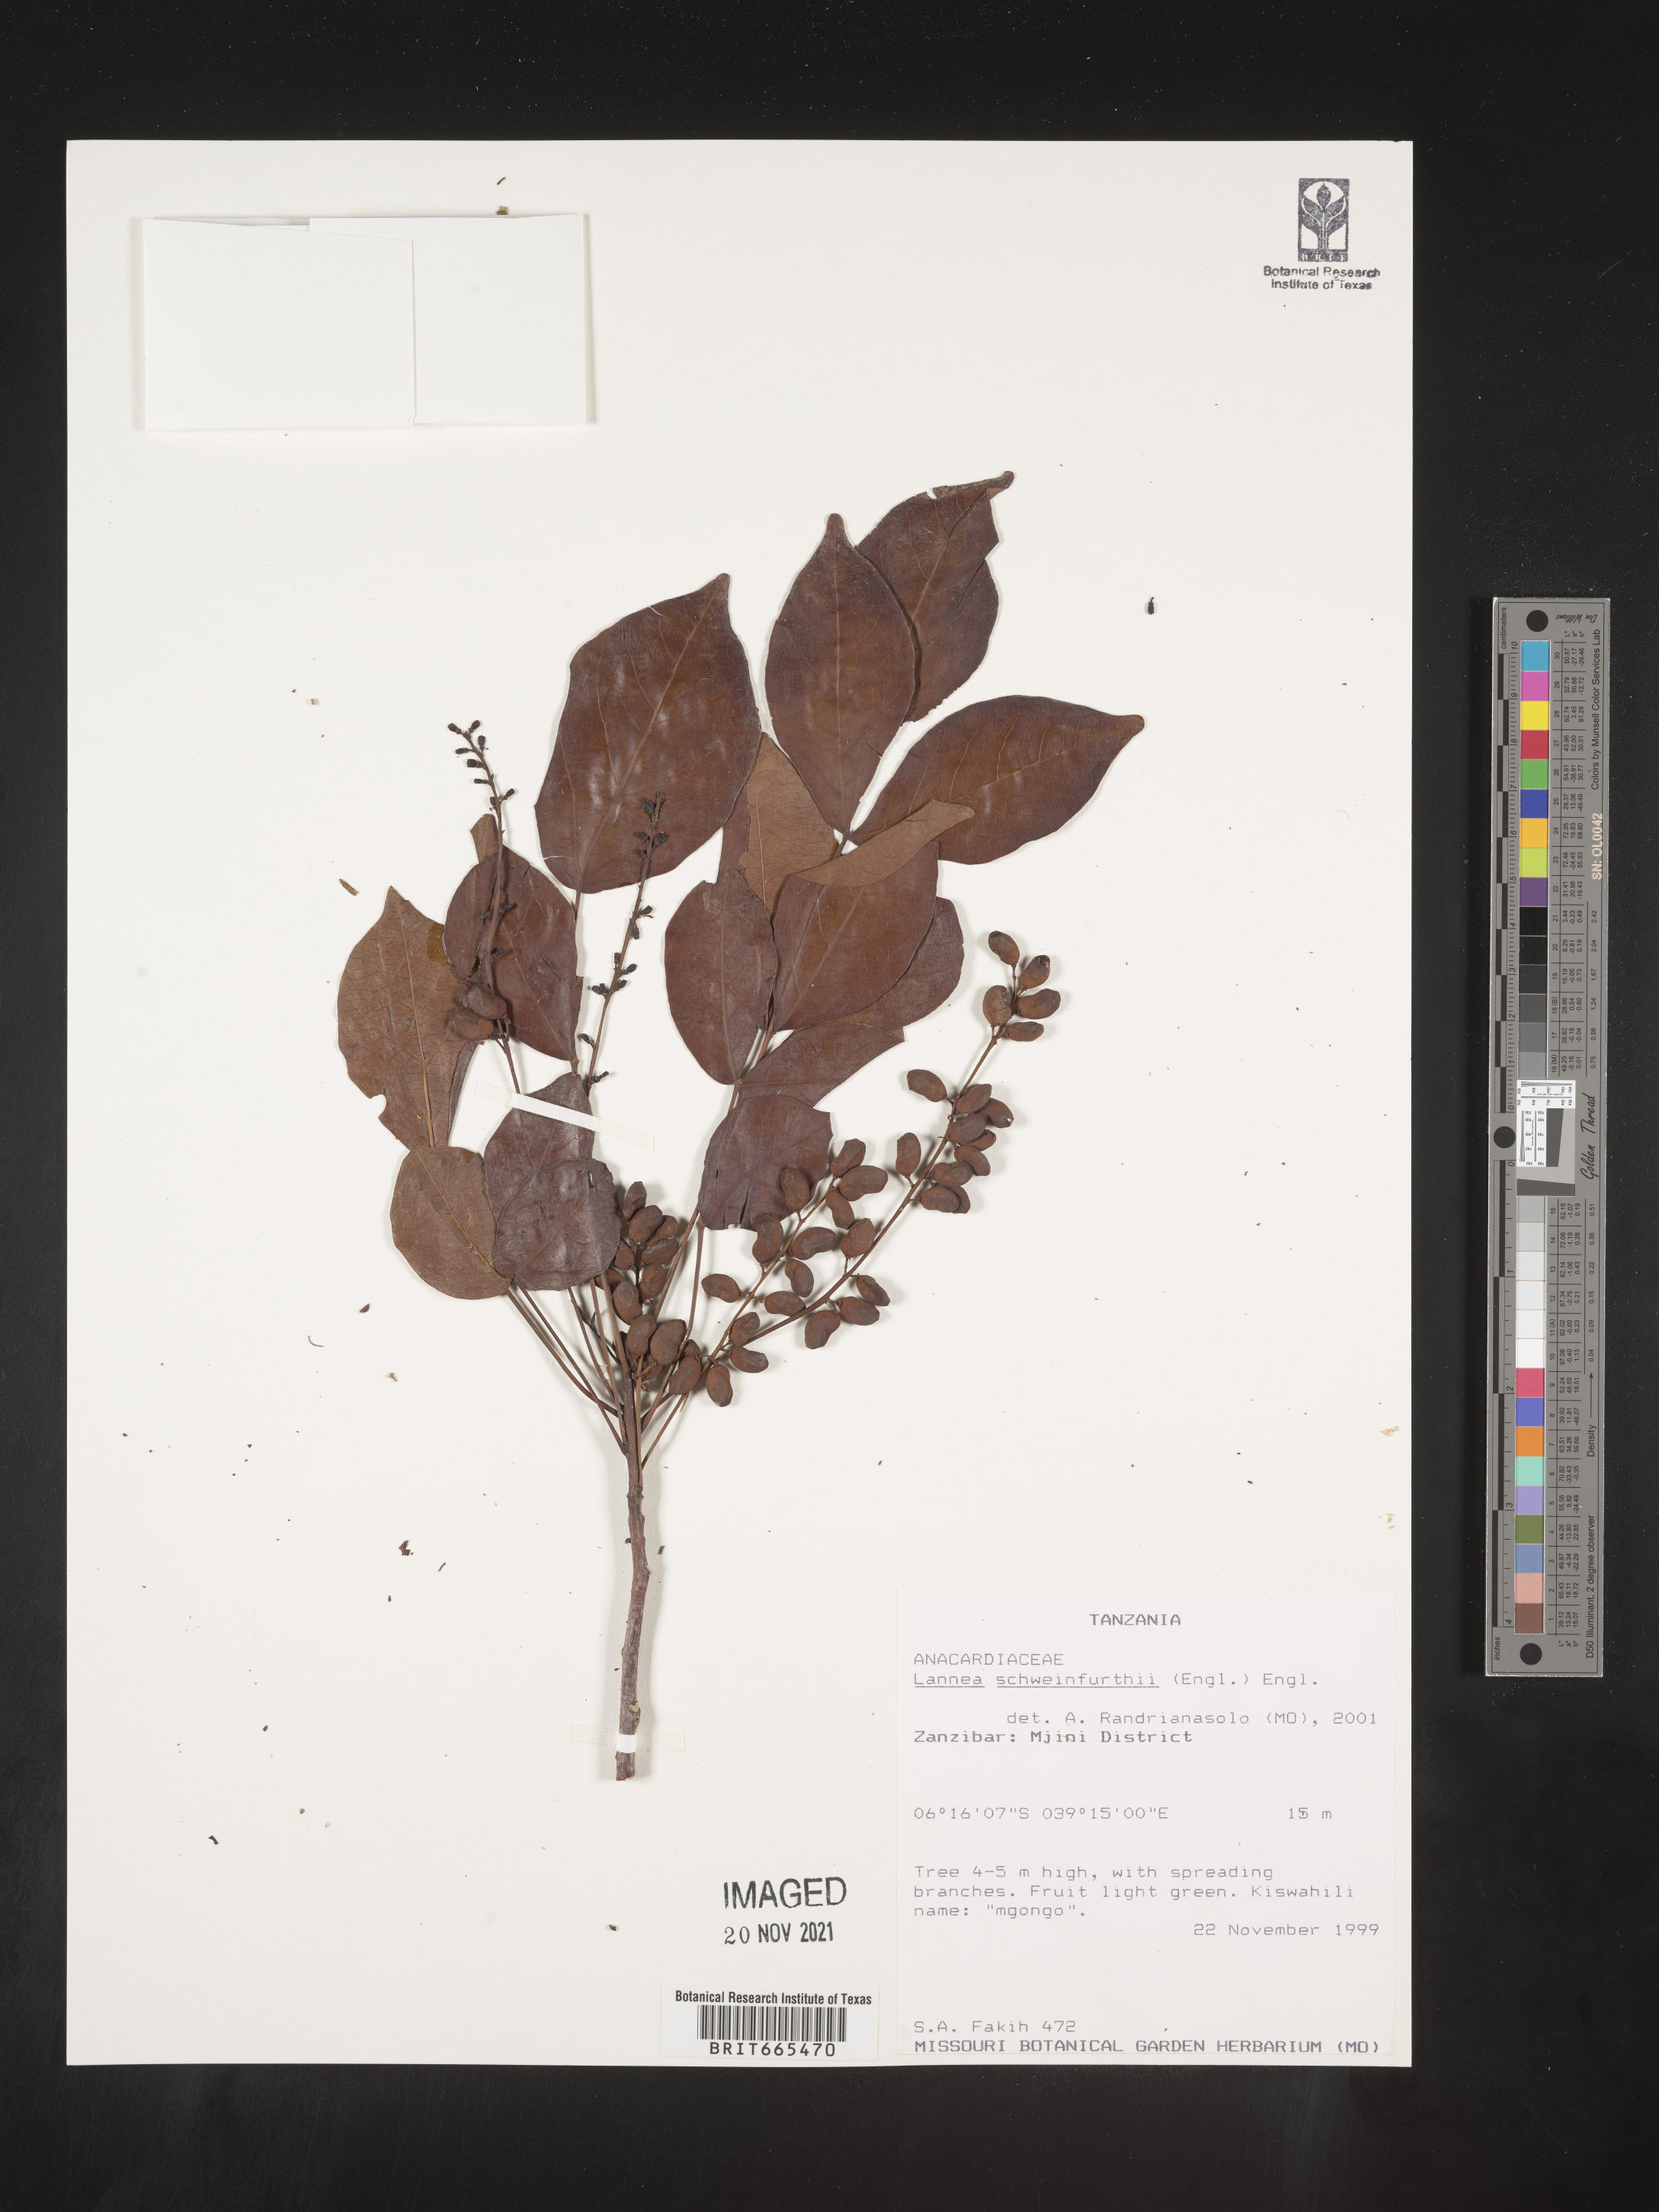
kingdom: Plantae
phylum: Tracheophyta
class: Magnoliopsida
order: Sapindales
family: Anacardiaceae
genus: Lannea
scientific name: Lannea
